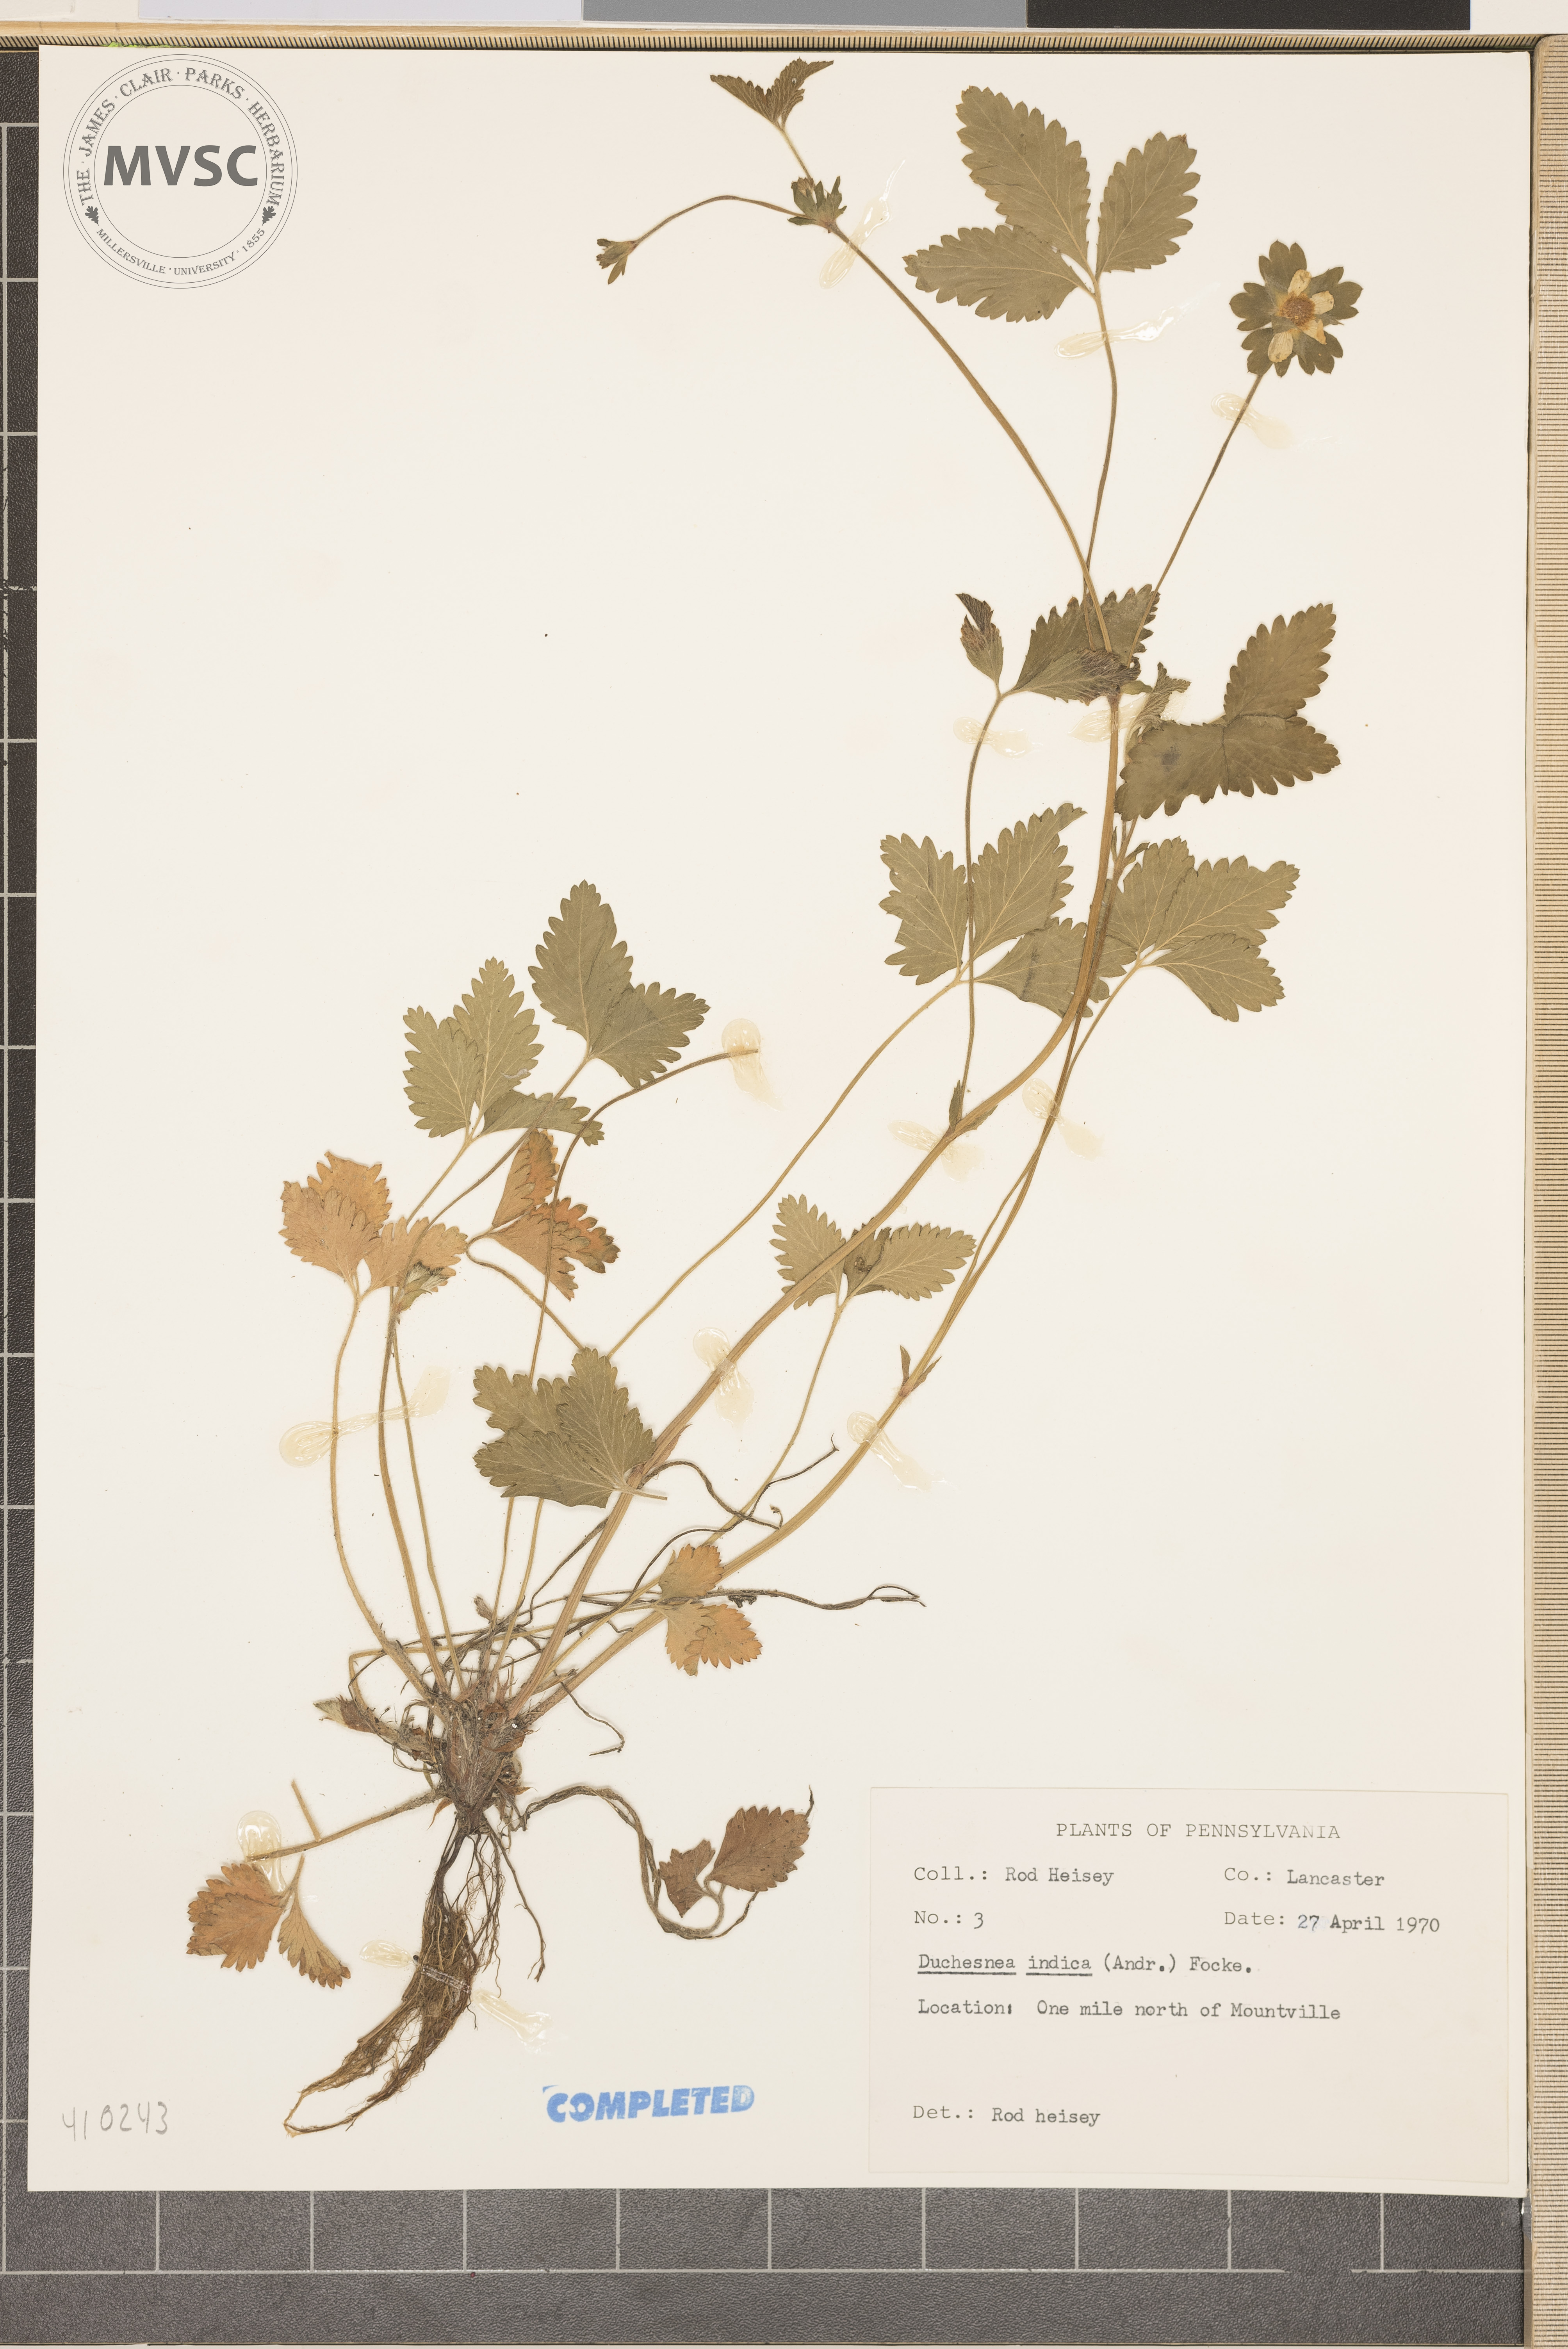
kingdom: Plantae
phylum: Tracheophyta
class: Magnoliopsida
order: Rosales
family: Rosaceae
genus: Potentilla
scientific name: Potentilla indica
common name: Yellow-flowered strawberry
